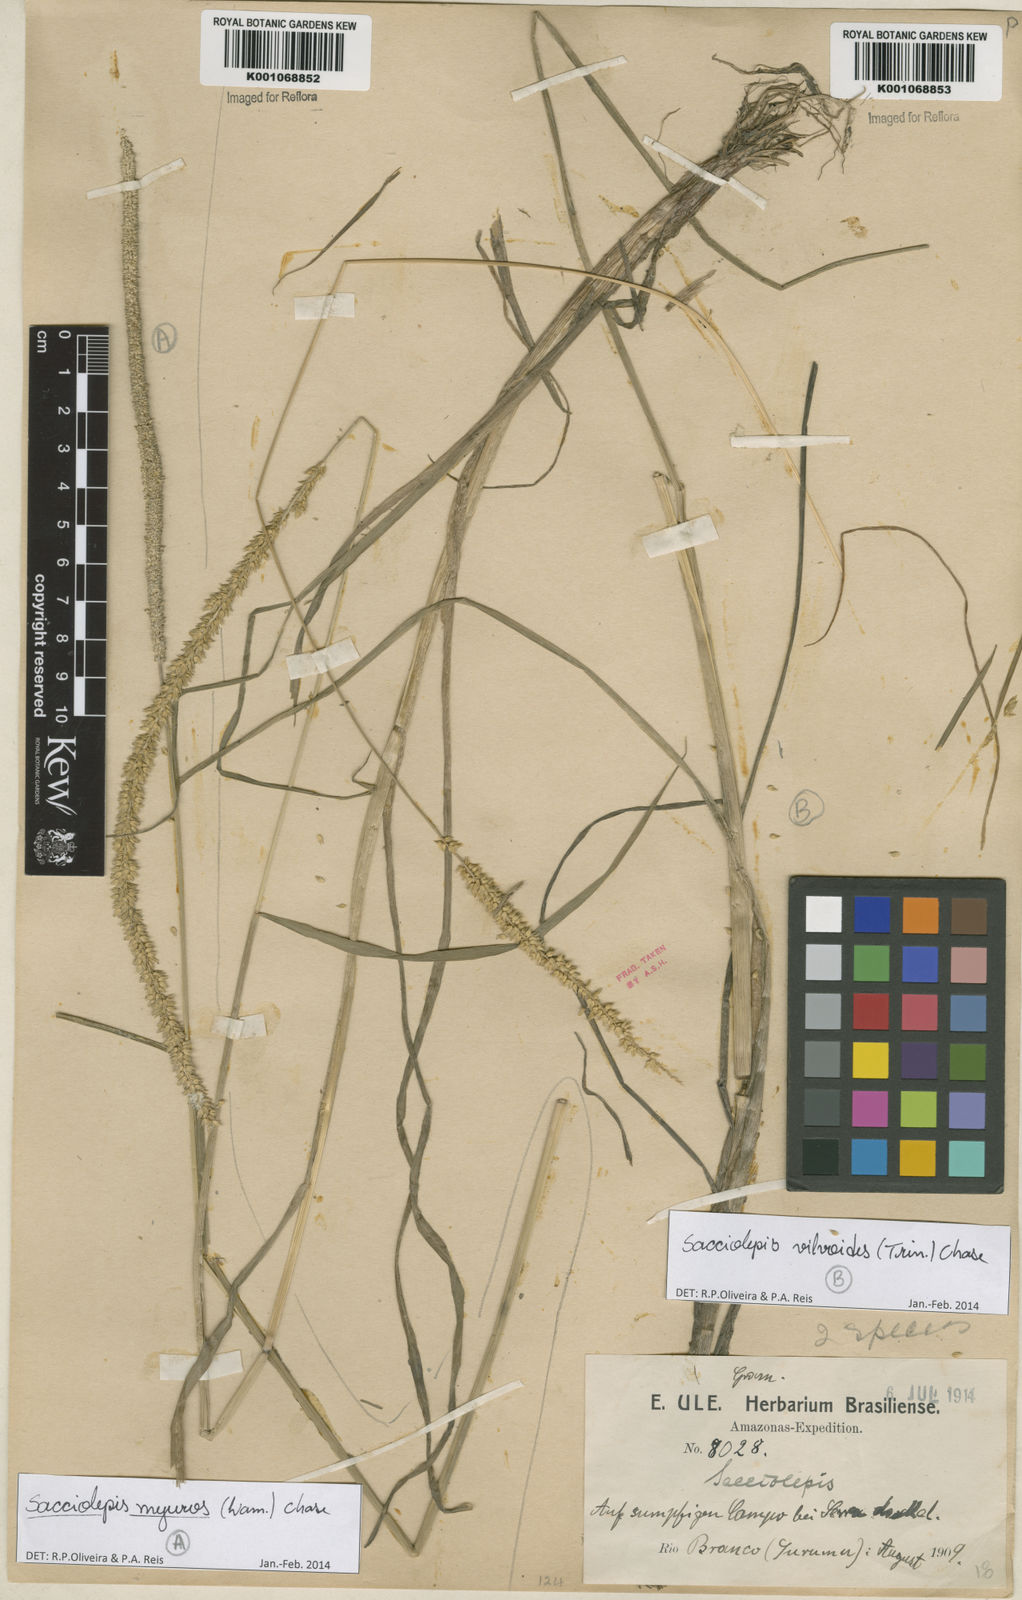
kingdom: Plantae
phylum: Tracheophyta
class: Liliopsida
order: Poales
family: Poaceae
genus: Sacciolepis
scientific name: Sacciolepis vilvoides
